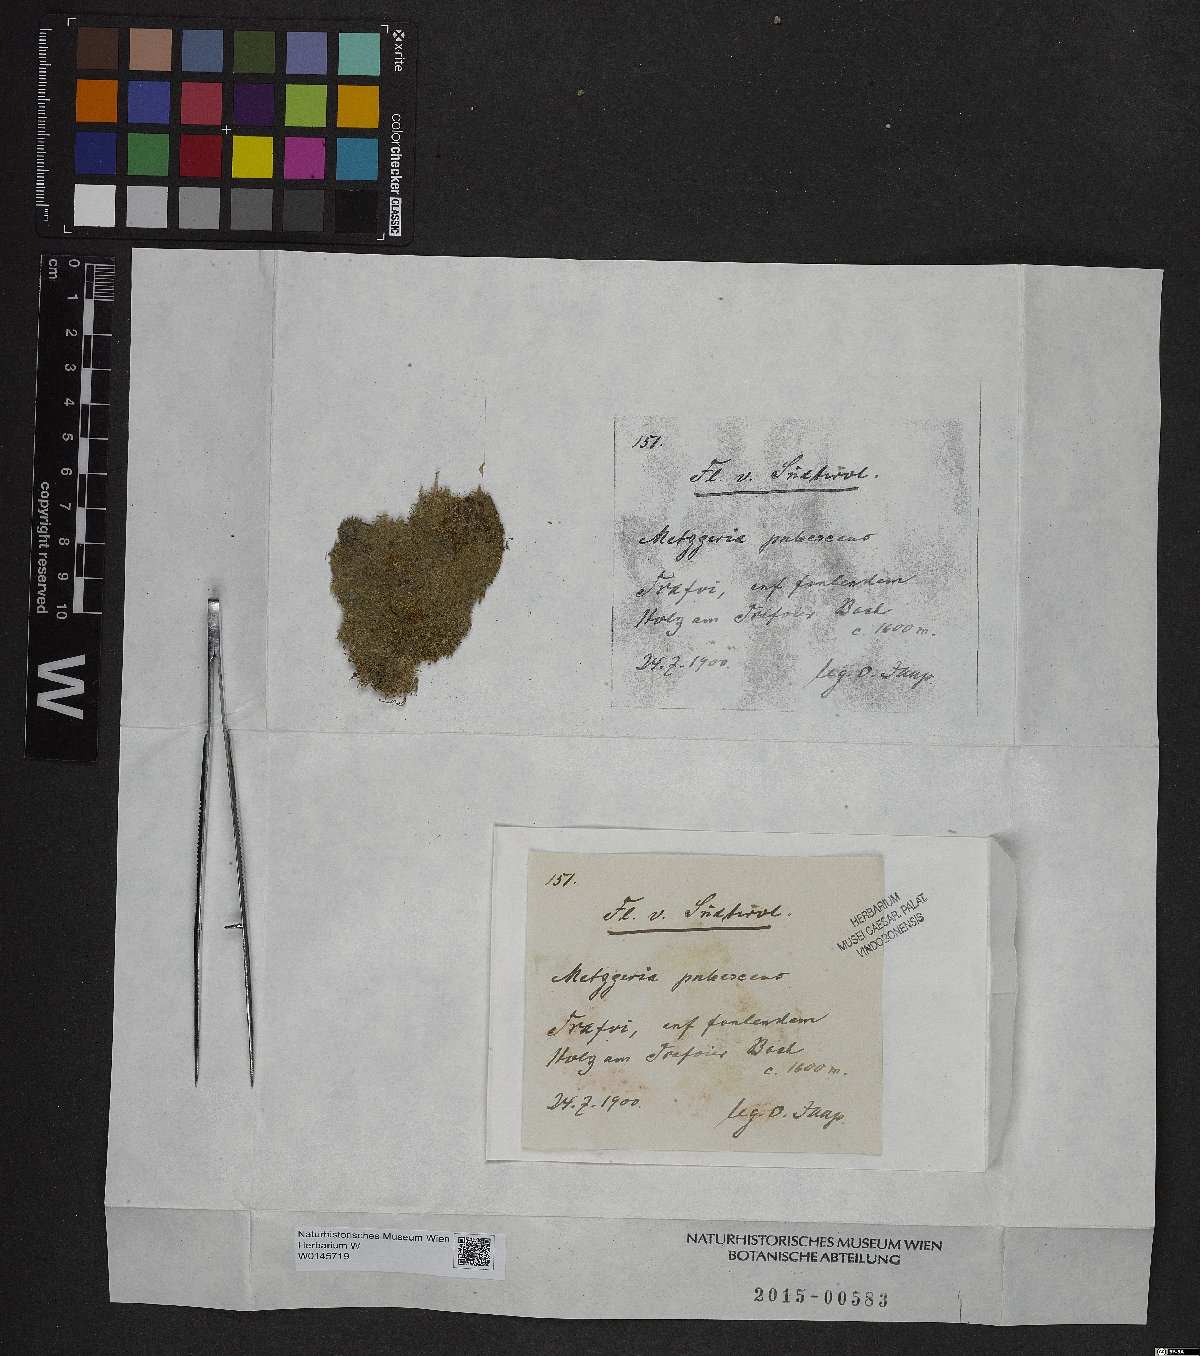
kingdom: Plantae
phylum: Marchantiophyta
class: Jungermanniopsida
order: Metzgeriales
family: Metzgeriaceae
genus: Metzgeria
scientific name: Metzgeria pubescens
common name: Downy veilwort
